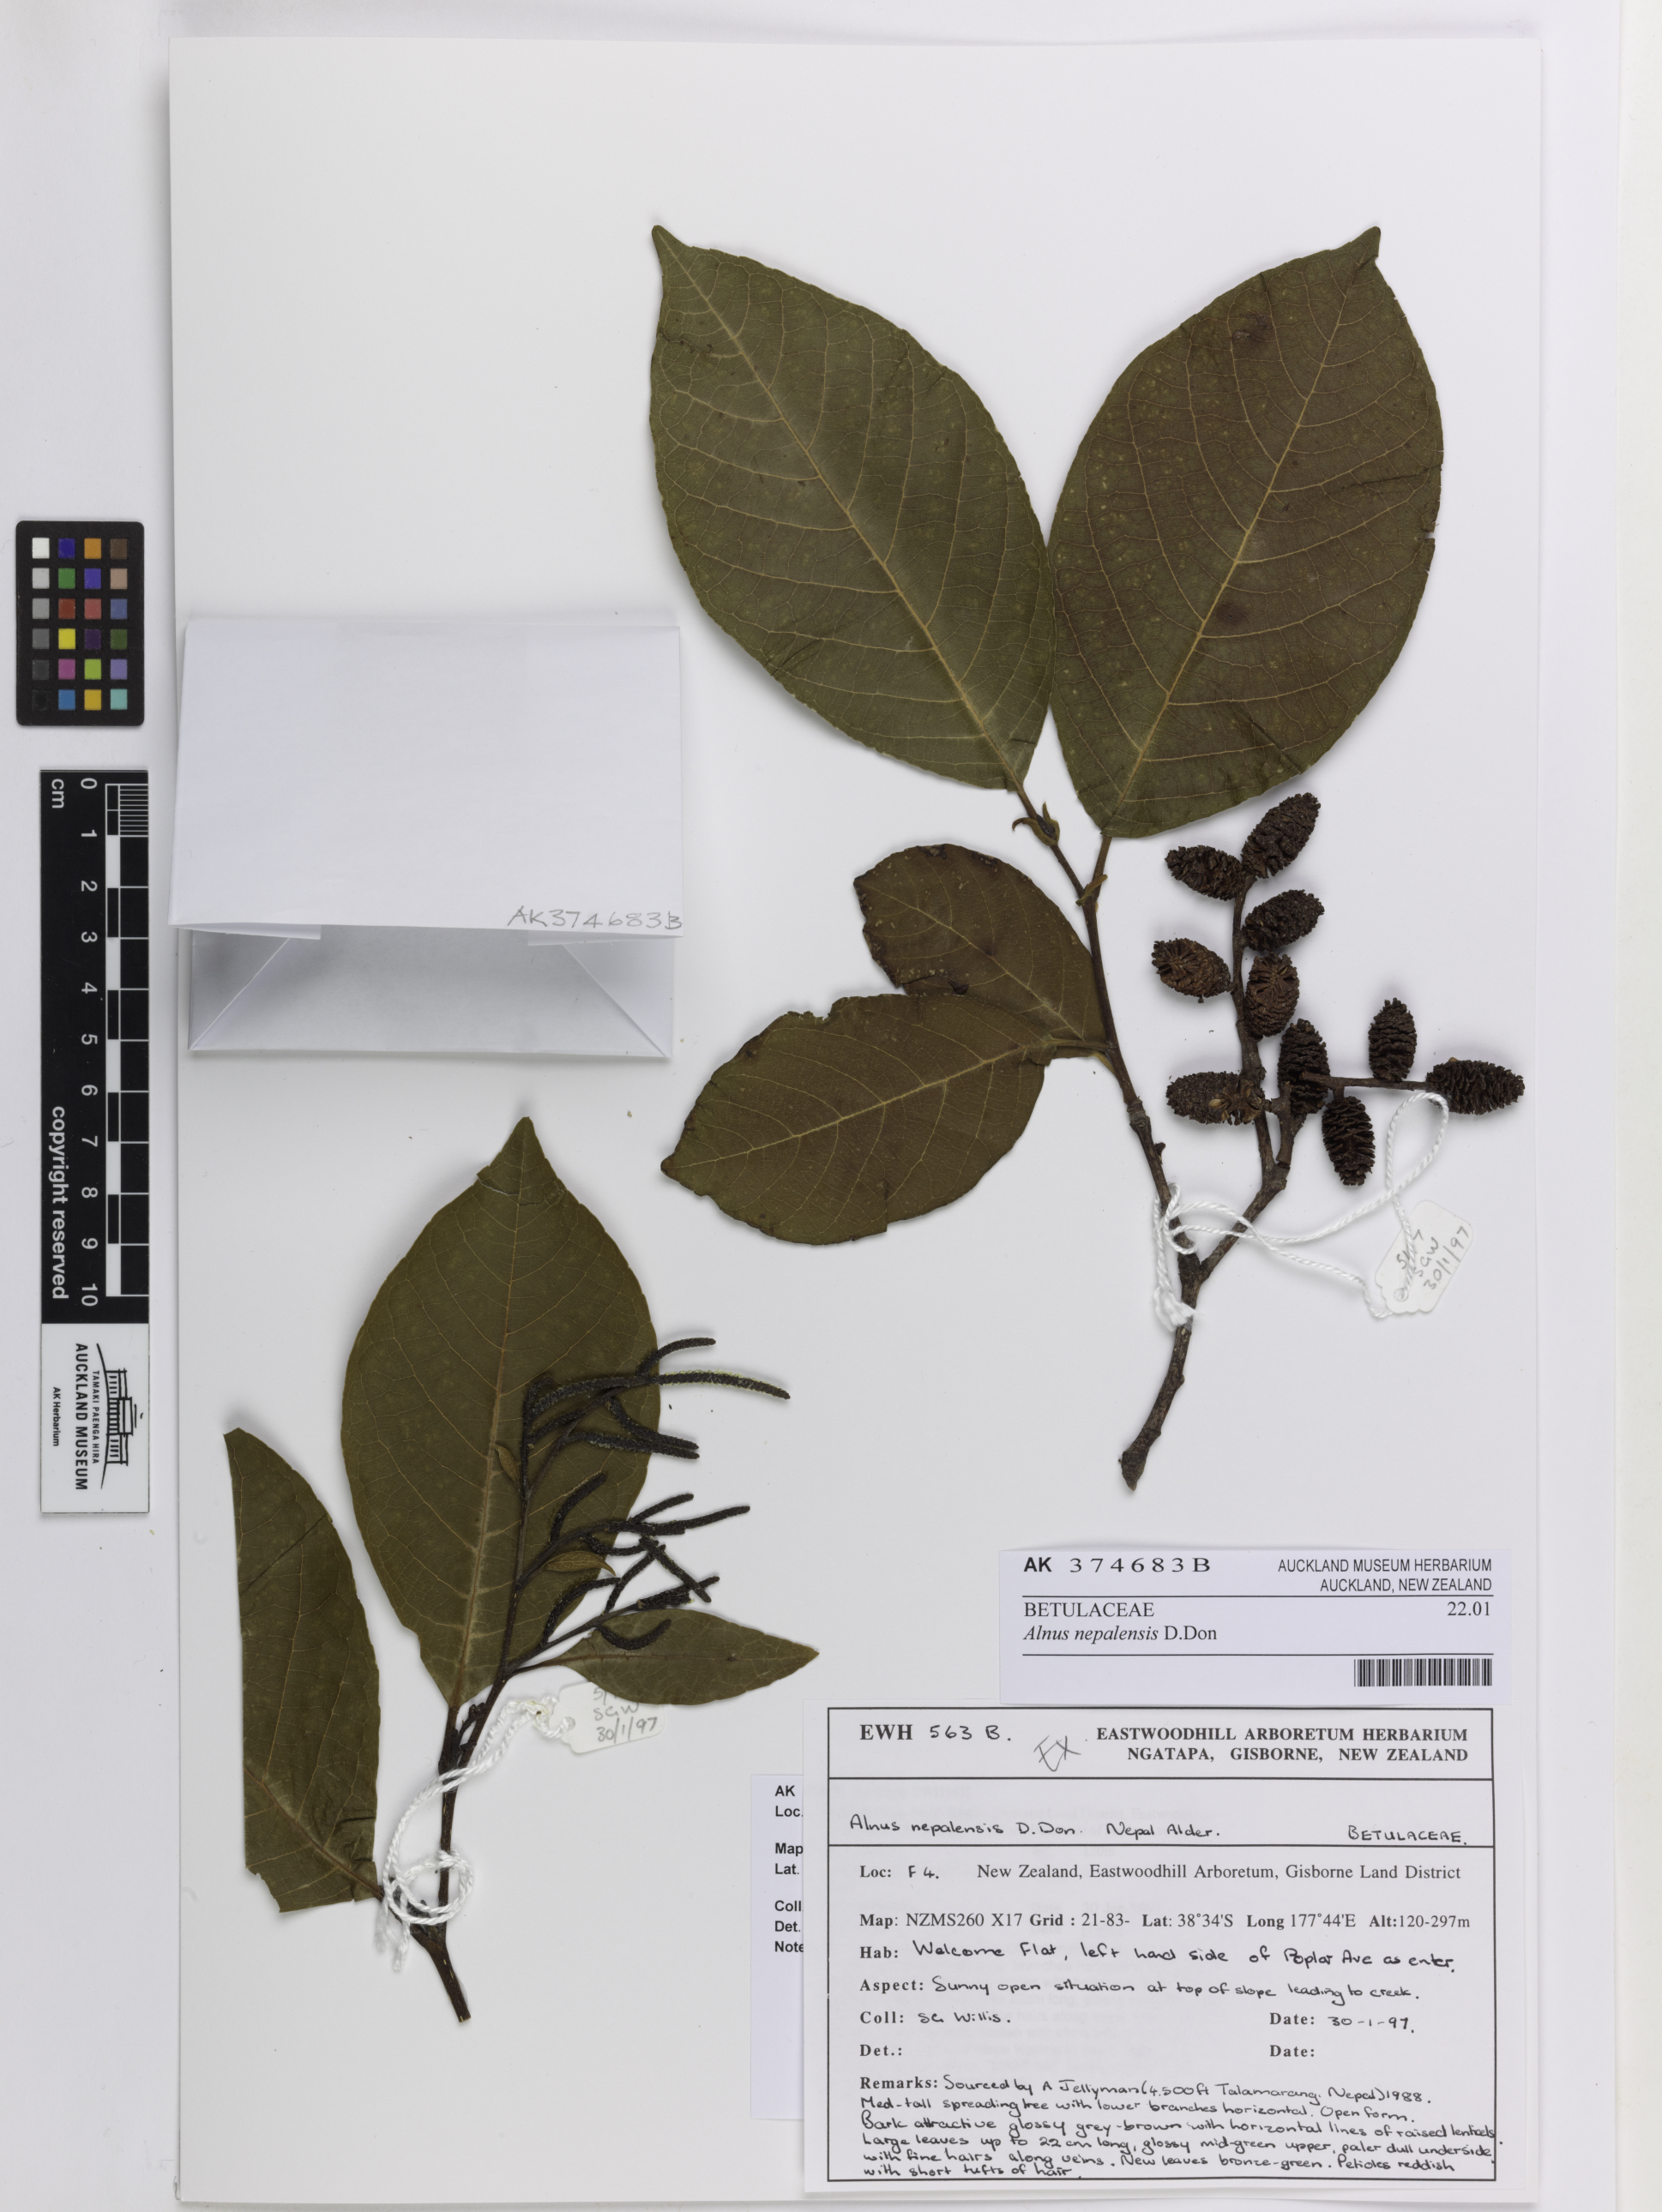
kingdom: Plantae
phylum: Tracheophyta
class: Magnoliopsida
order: Fagales
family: Betulaceae
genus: Alnus
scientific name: Alnus nepalensis
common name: Nepal alder
